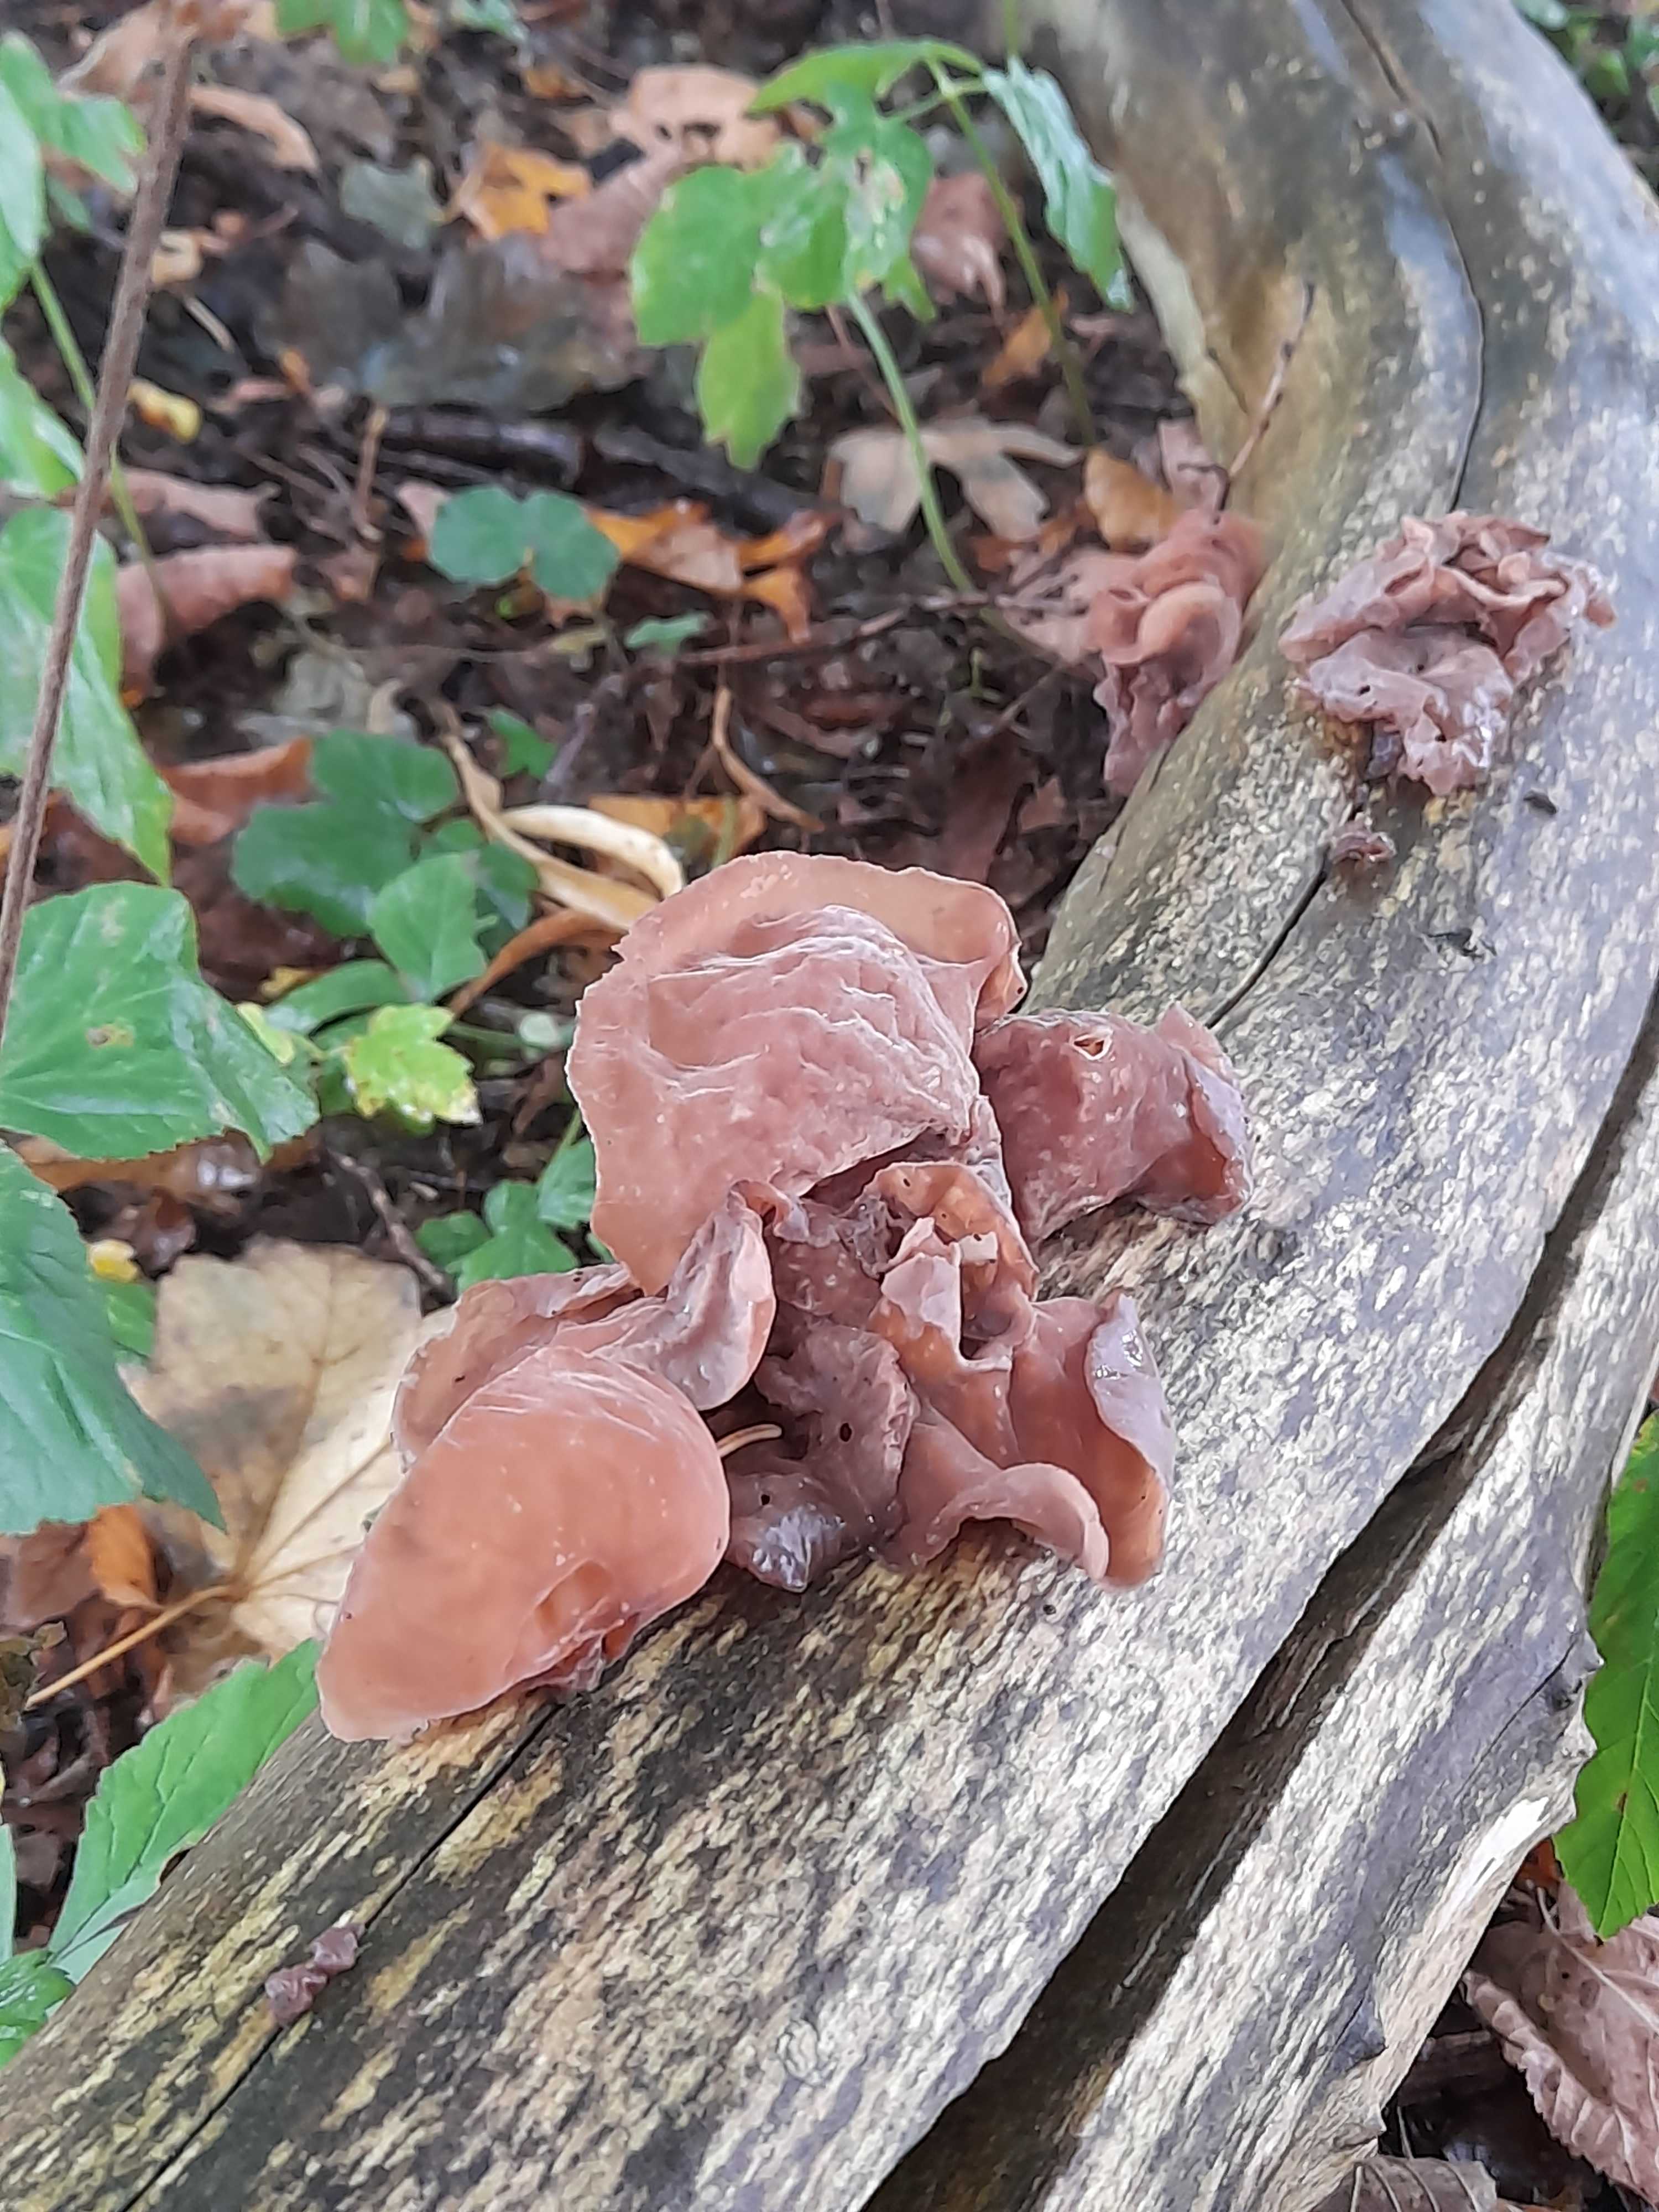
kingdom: Fungi
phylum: Basidiomycota
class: Agaricomycetes
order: Auriculariales
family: Auriculariaceae
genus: Auricularia
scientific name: Auricularia auricula-judae
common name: almindelig judasøre
